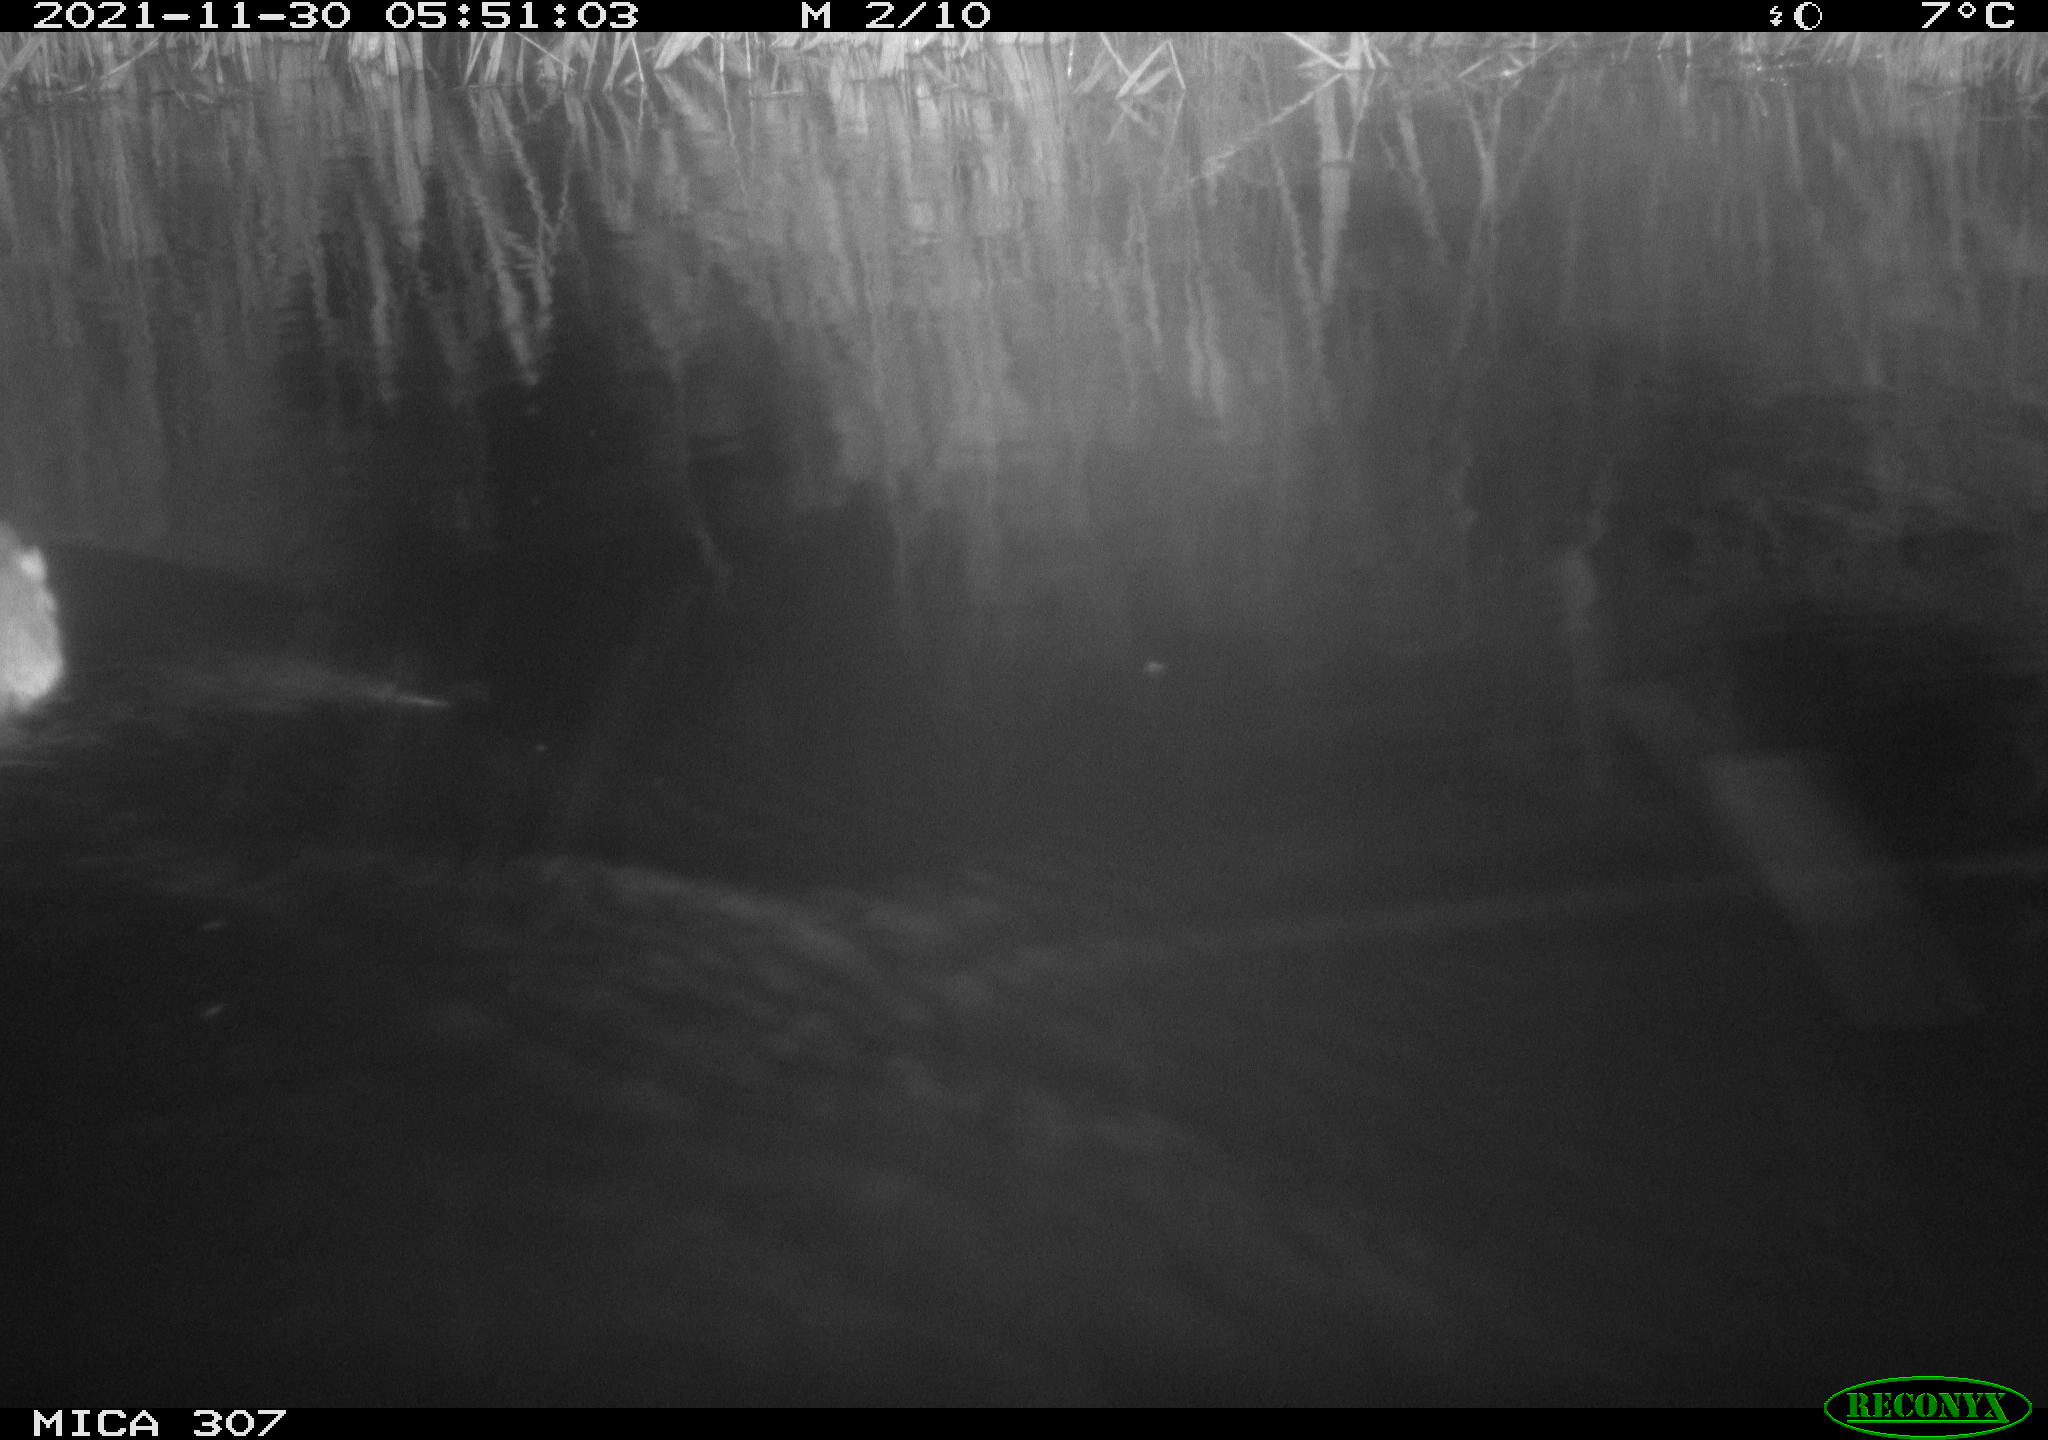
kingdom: Animalia
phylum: Chordata
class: Mammalia
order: Rodentia
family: Muridae
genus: Rattus
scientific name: Rattus norvegicus
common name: Brown rat
